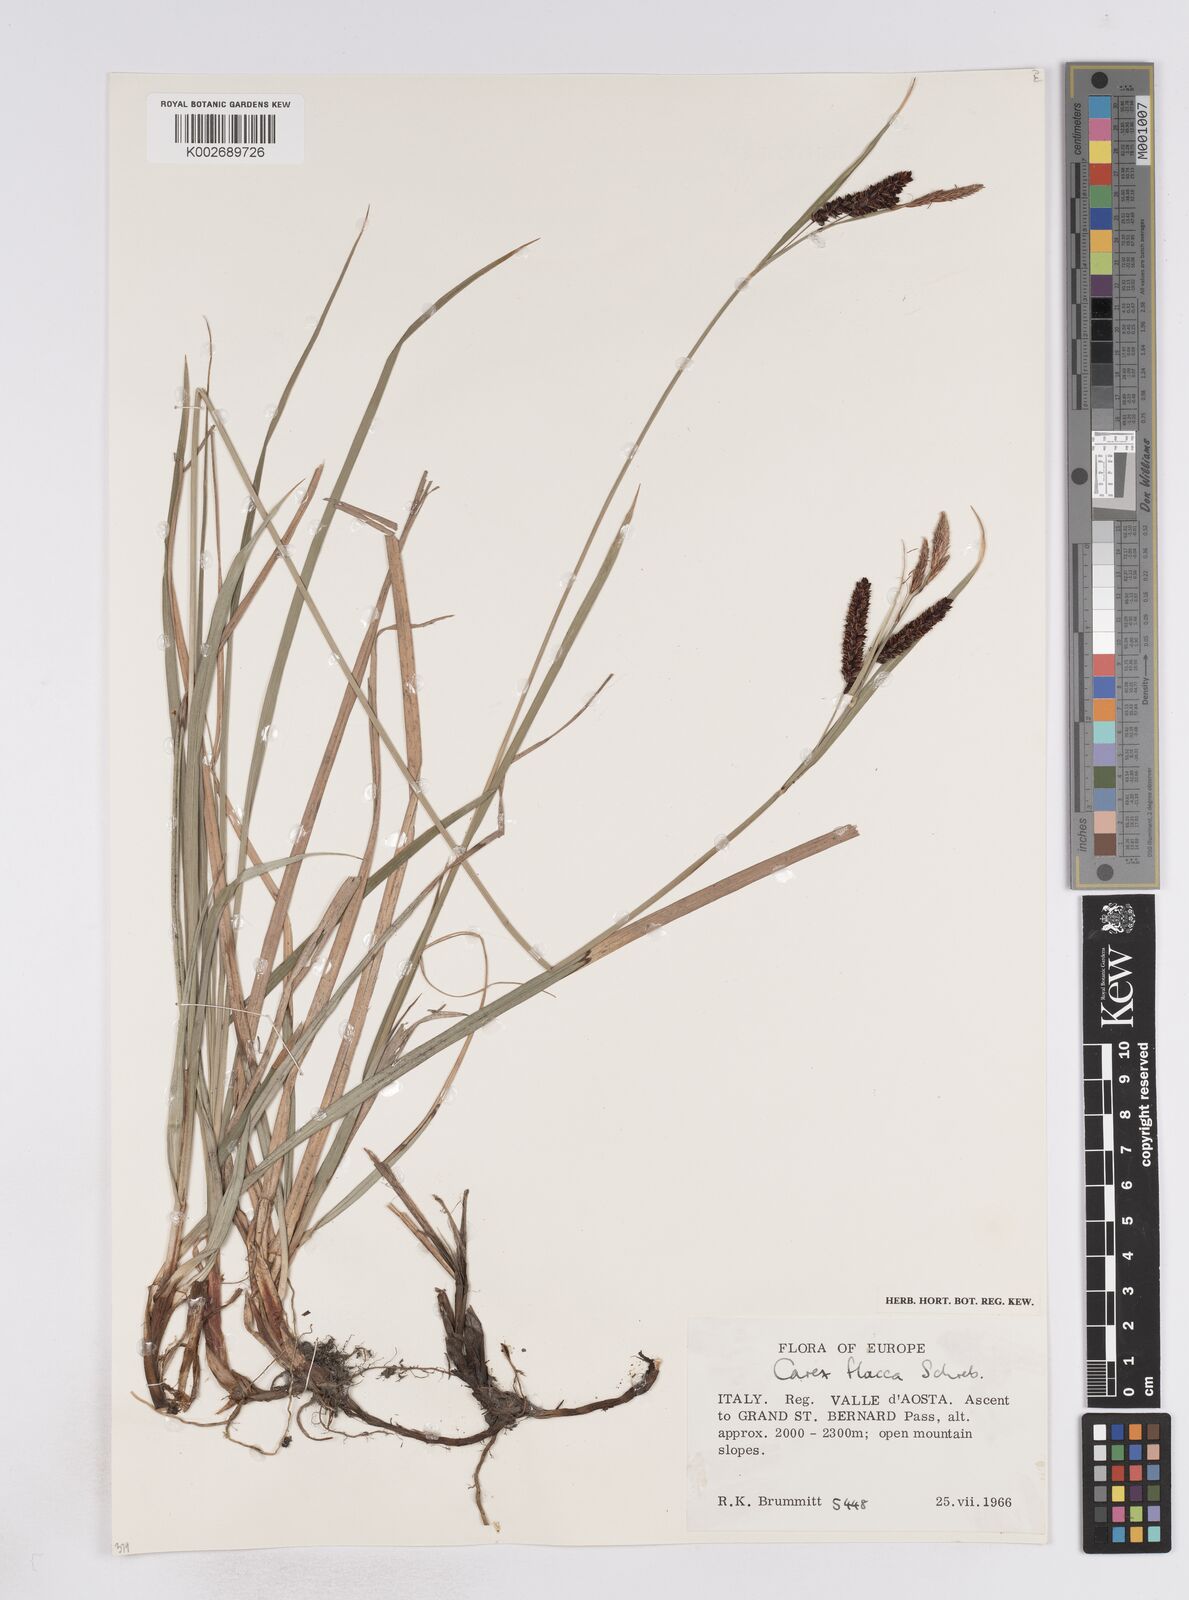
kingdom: Plantae
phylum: Tracheophyta
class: Liliopsida
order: Poales
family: Cyperaceae
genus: Carex
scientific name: Carex flacca
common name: Glaucous sedge
